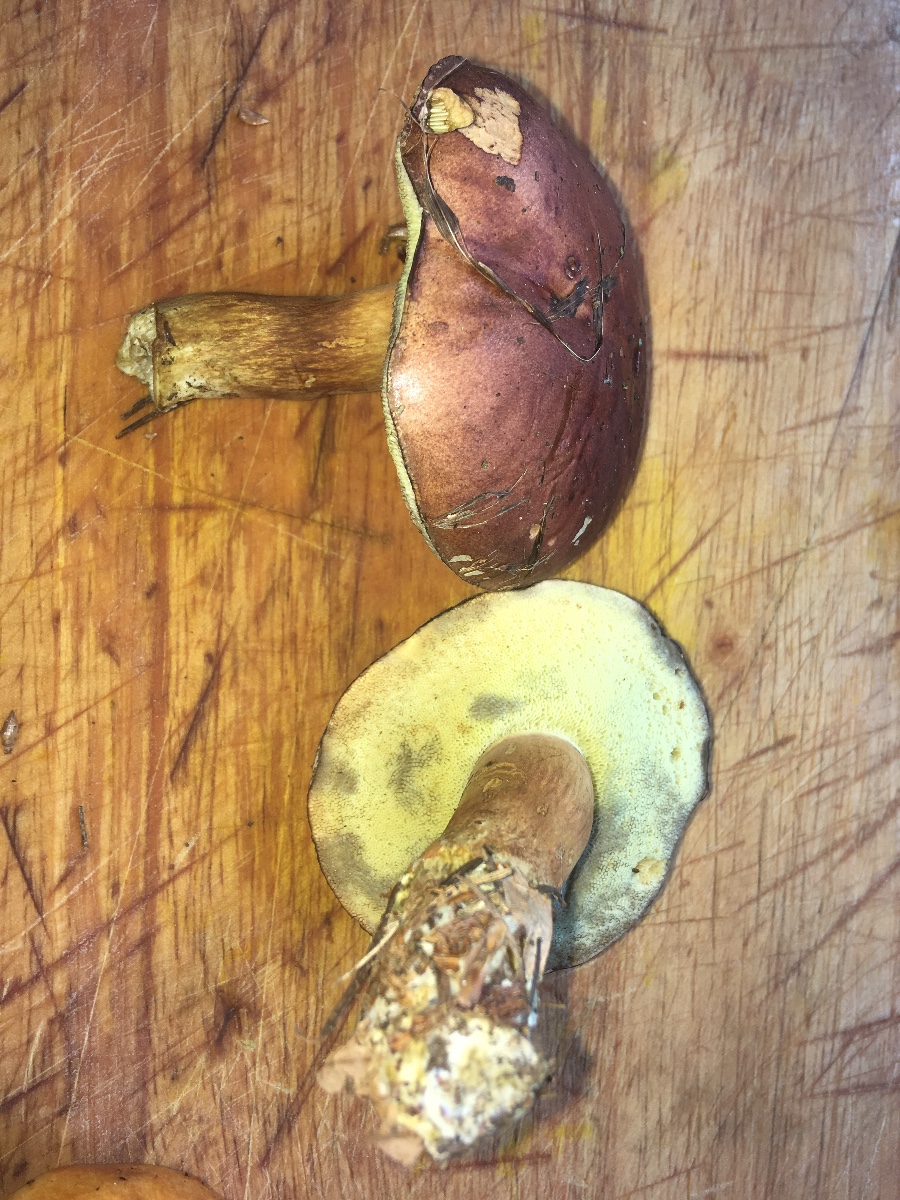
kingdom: Fungi
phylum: Basidiomycota
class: Agaricomycetes
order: Boletales
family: Boletaceae
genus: Imleria
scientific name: Imleria badia
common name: brunstokket rørhat
